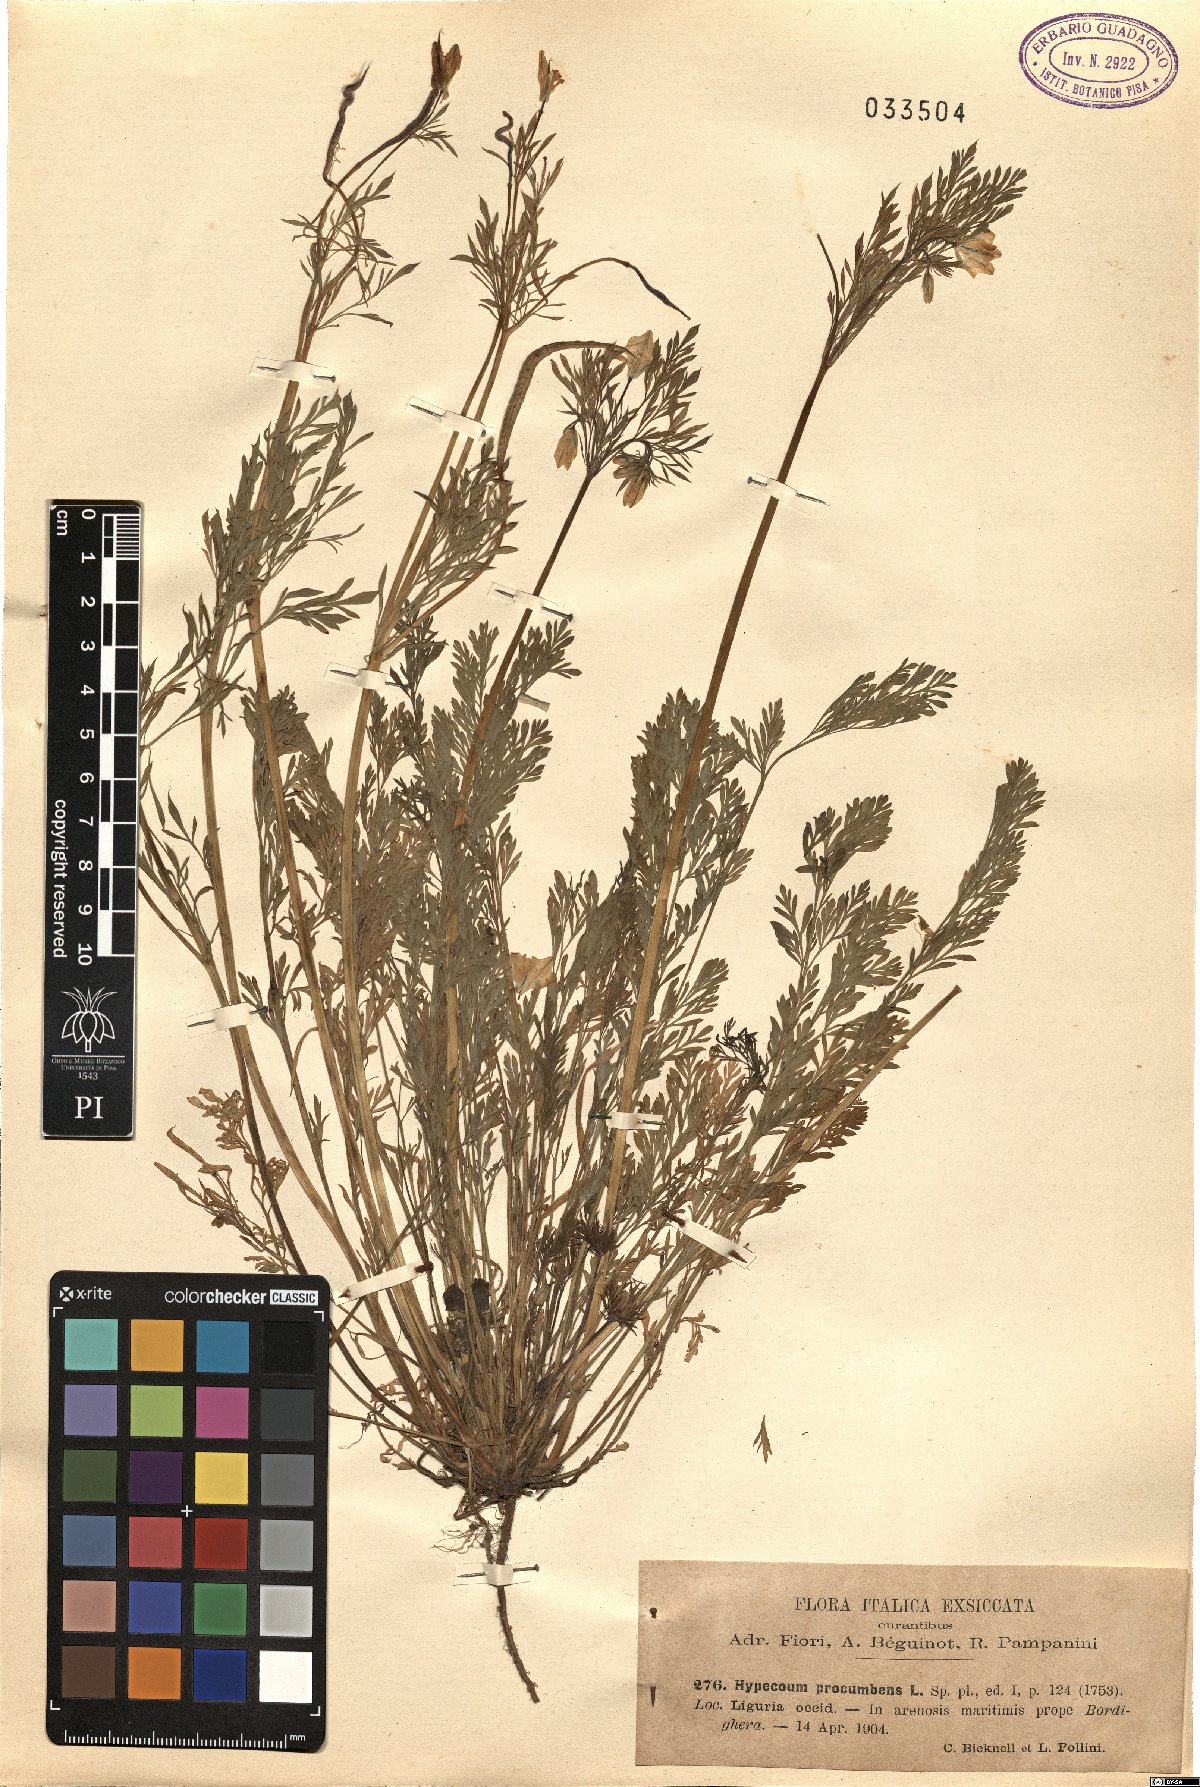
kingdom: Plantae
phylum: Tracheophyta
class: Magnoliopsida
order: Ranunculales
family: Papaveraceae
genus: Hypecoum
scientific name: Hypecoum procumbens
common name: Procumbent hypecoum
